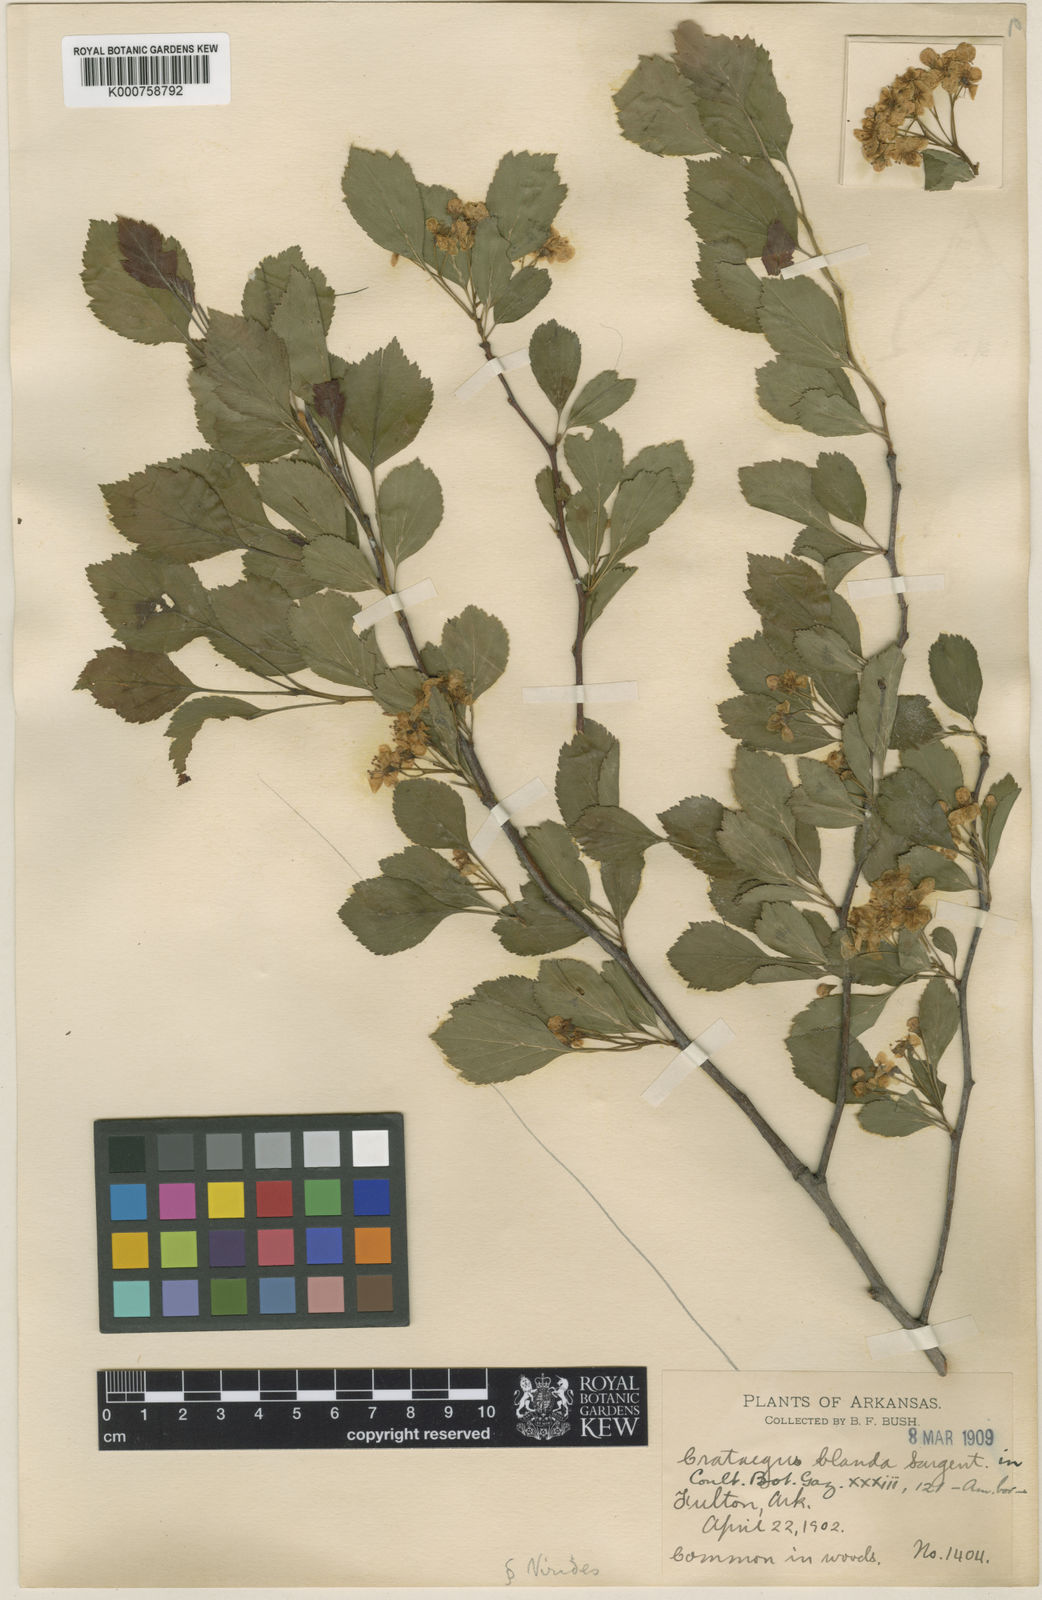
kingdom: Plantae
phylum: Tracheophyta
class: Magnoliopsida
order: Rosales
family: Rosaceae
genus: Crataegus
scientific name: Crataegus viridis
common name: Southernthorn
